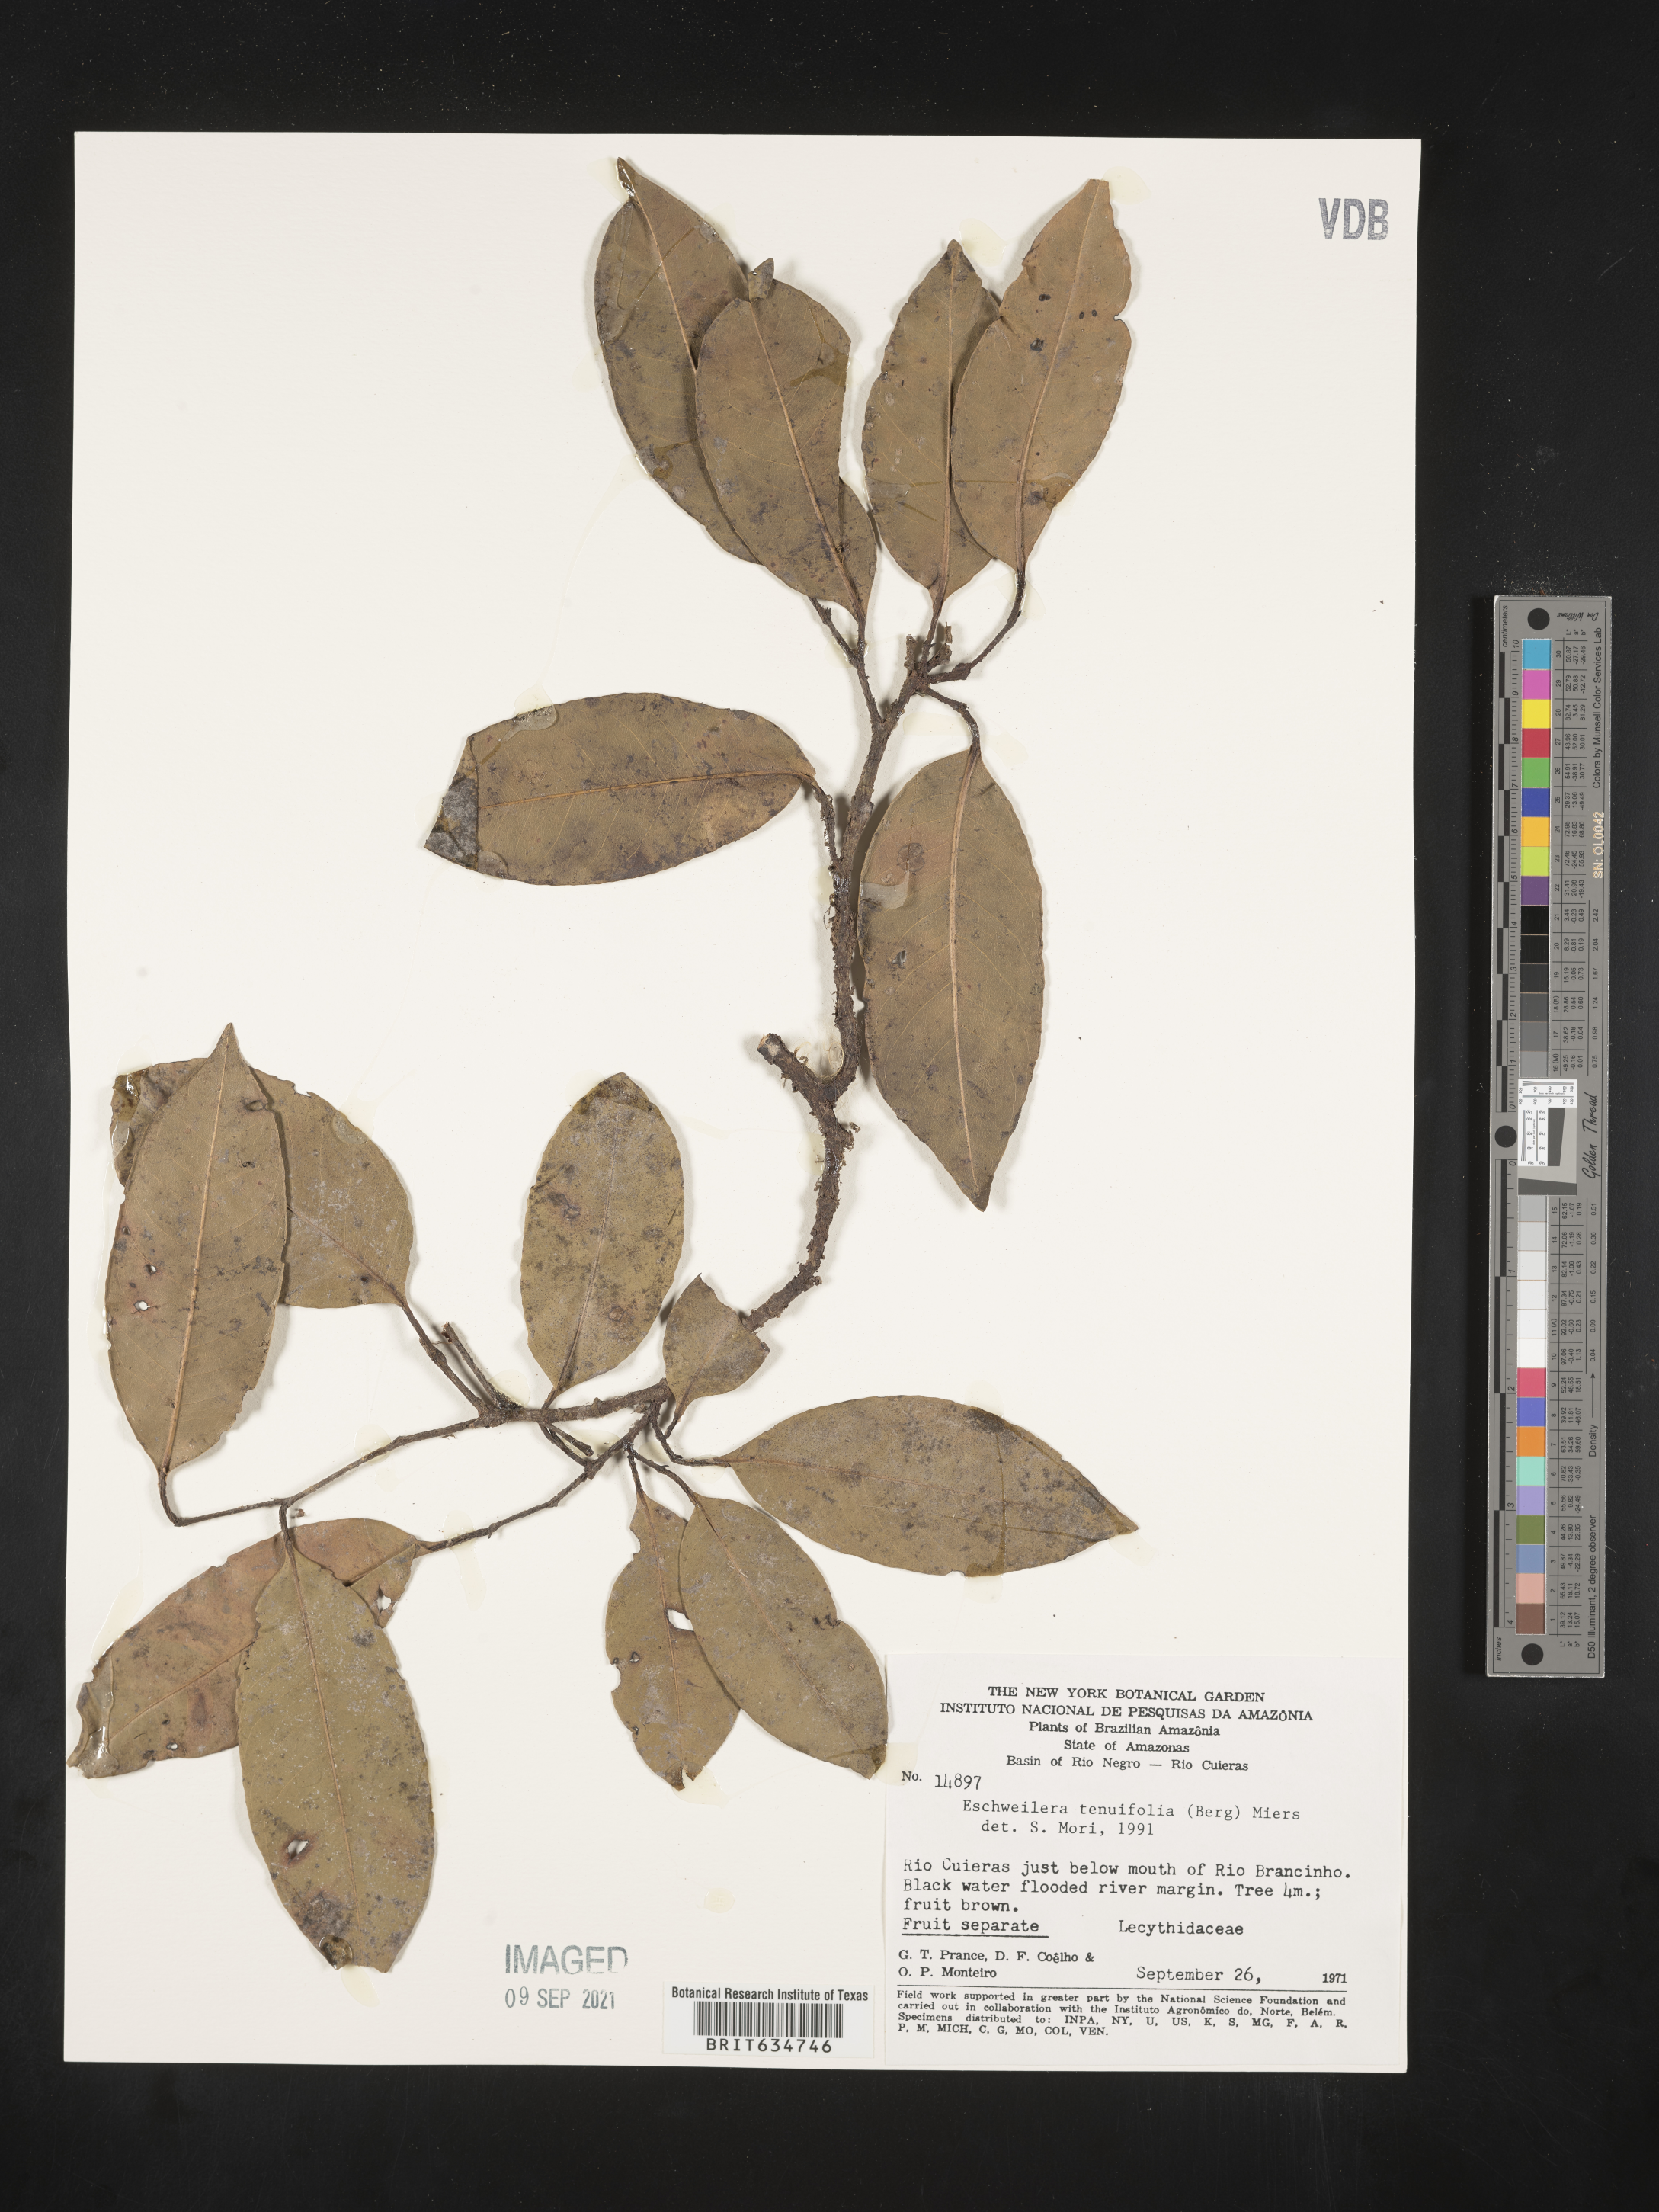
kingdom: Plantae
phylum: Tracheophyta
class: Magnoliopsida
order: Ericales
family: Lecythidaceae
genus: Eschweilera
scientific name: Eschweilera
